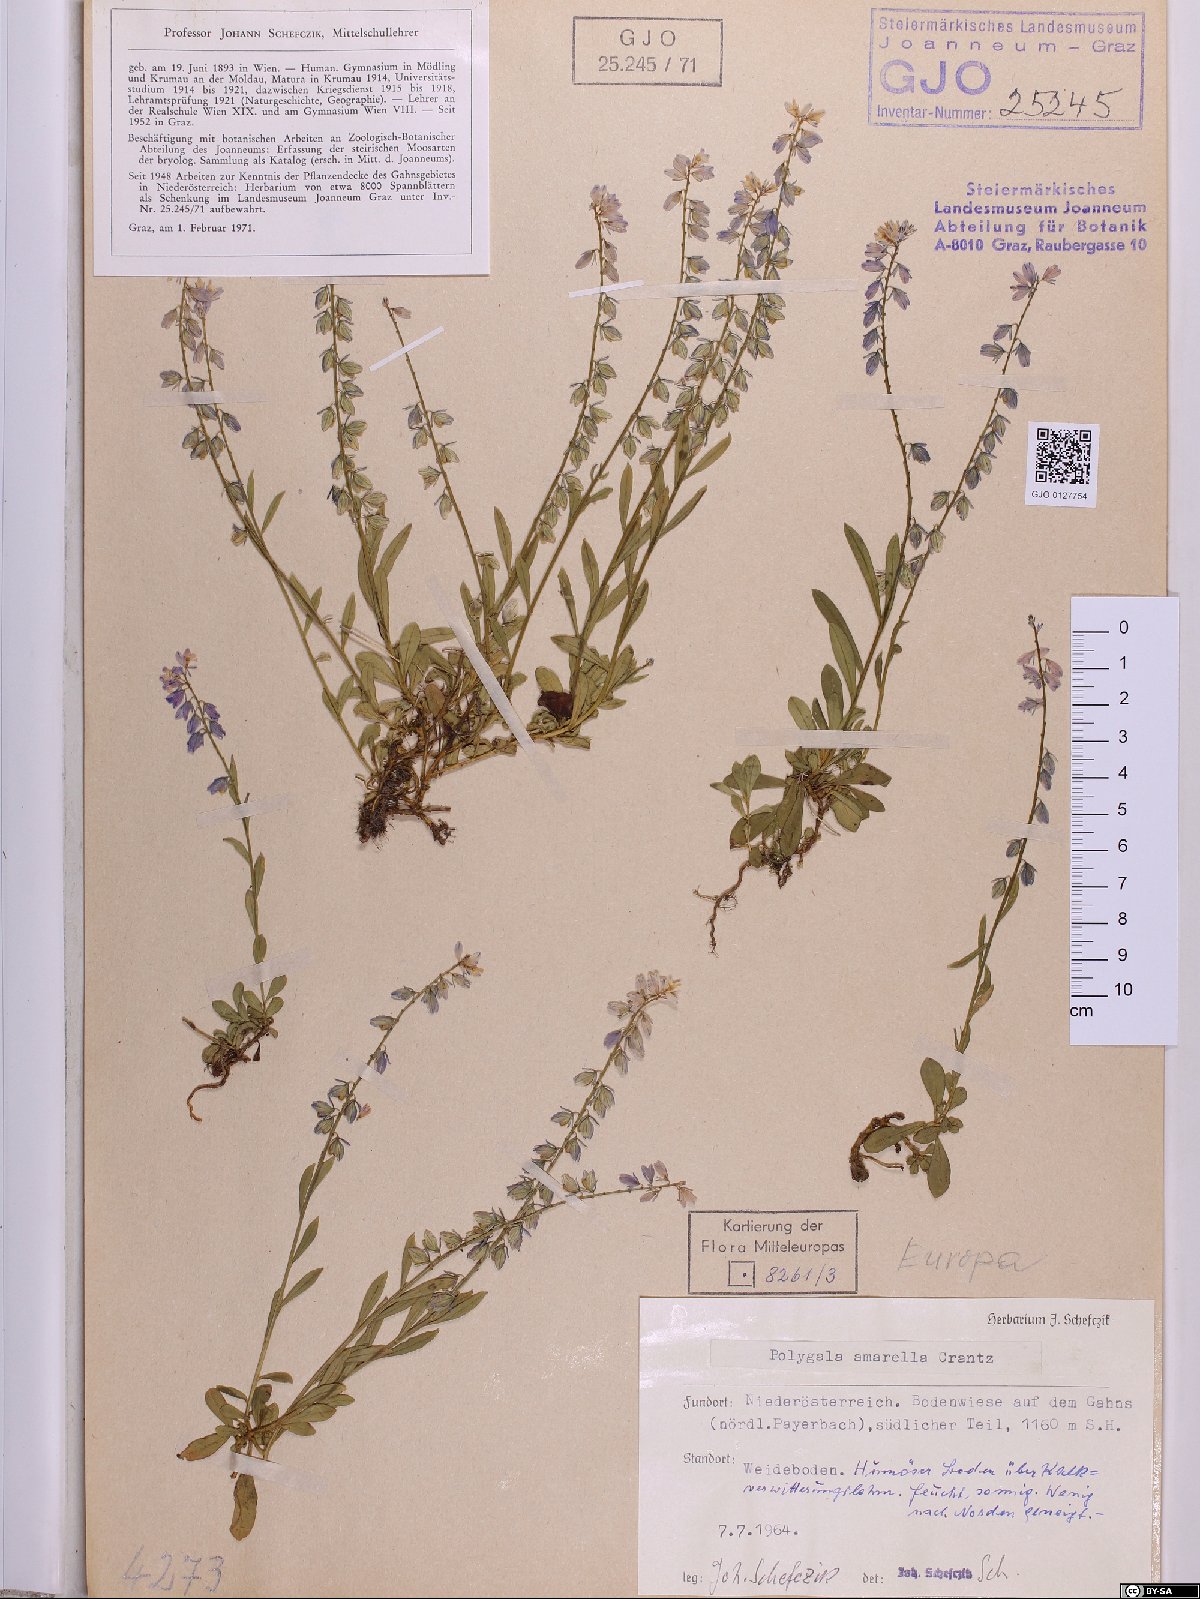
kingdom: Plantae
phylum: Tracheophyta
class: Magnoliopsida
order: Fabales
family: Polygalaceae
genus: Polygala
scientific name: Polygala amarella
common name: Dwarf milkwort
